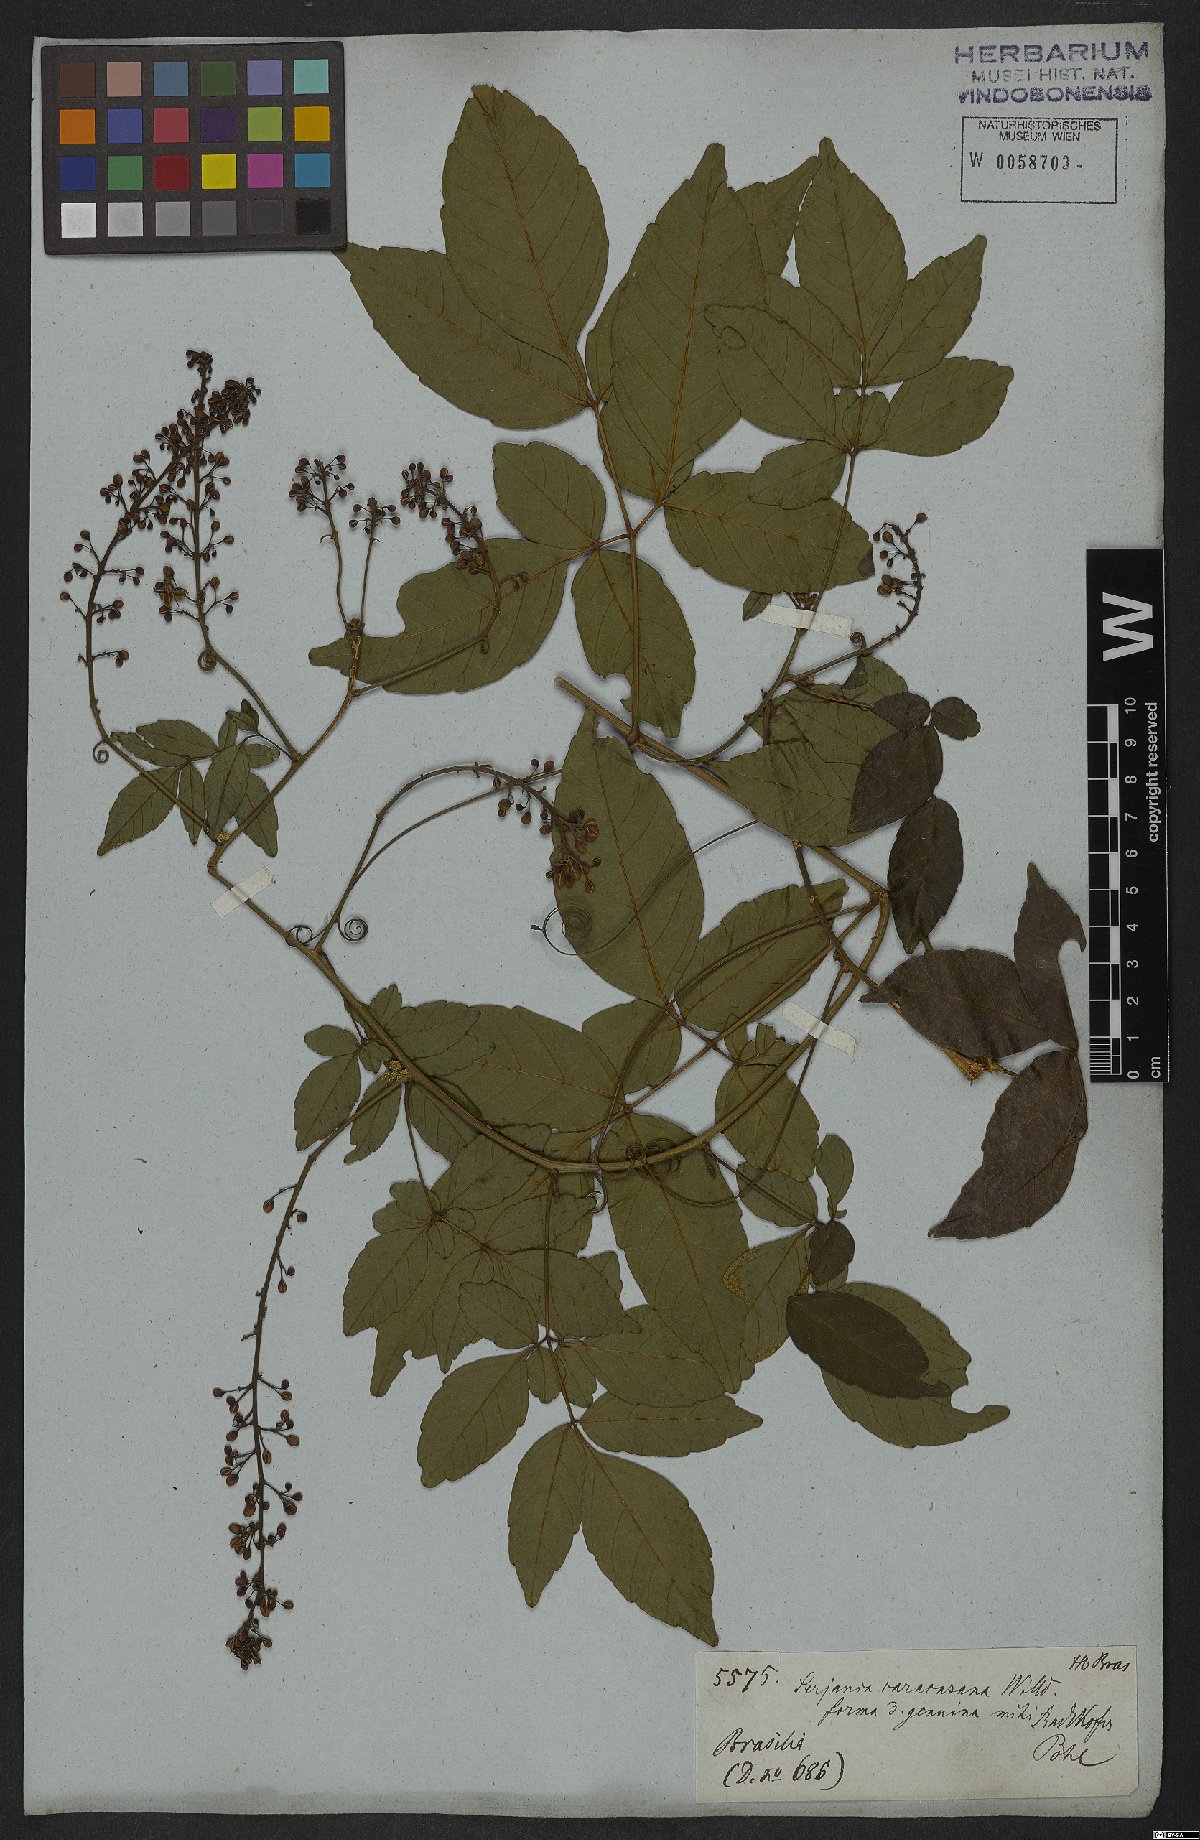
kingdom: Plantae
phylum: Tracheophyta
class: Magnoliopsida
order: Sapindales
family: Sapindaceae
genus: Serjania
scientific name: Serjania caracasana
